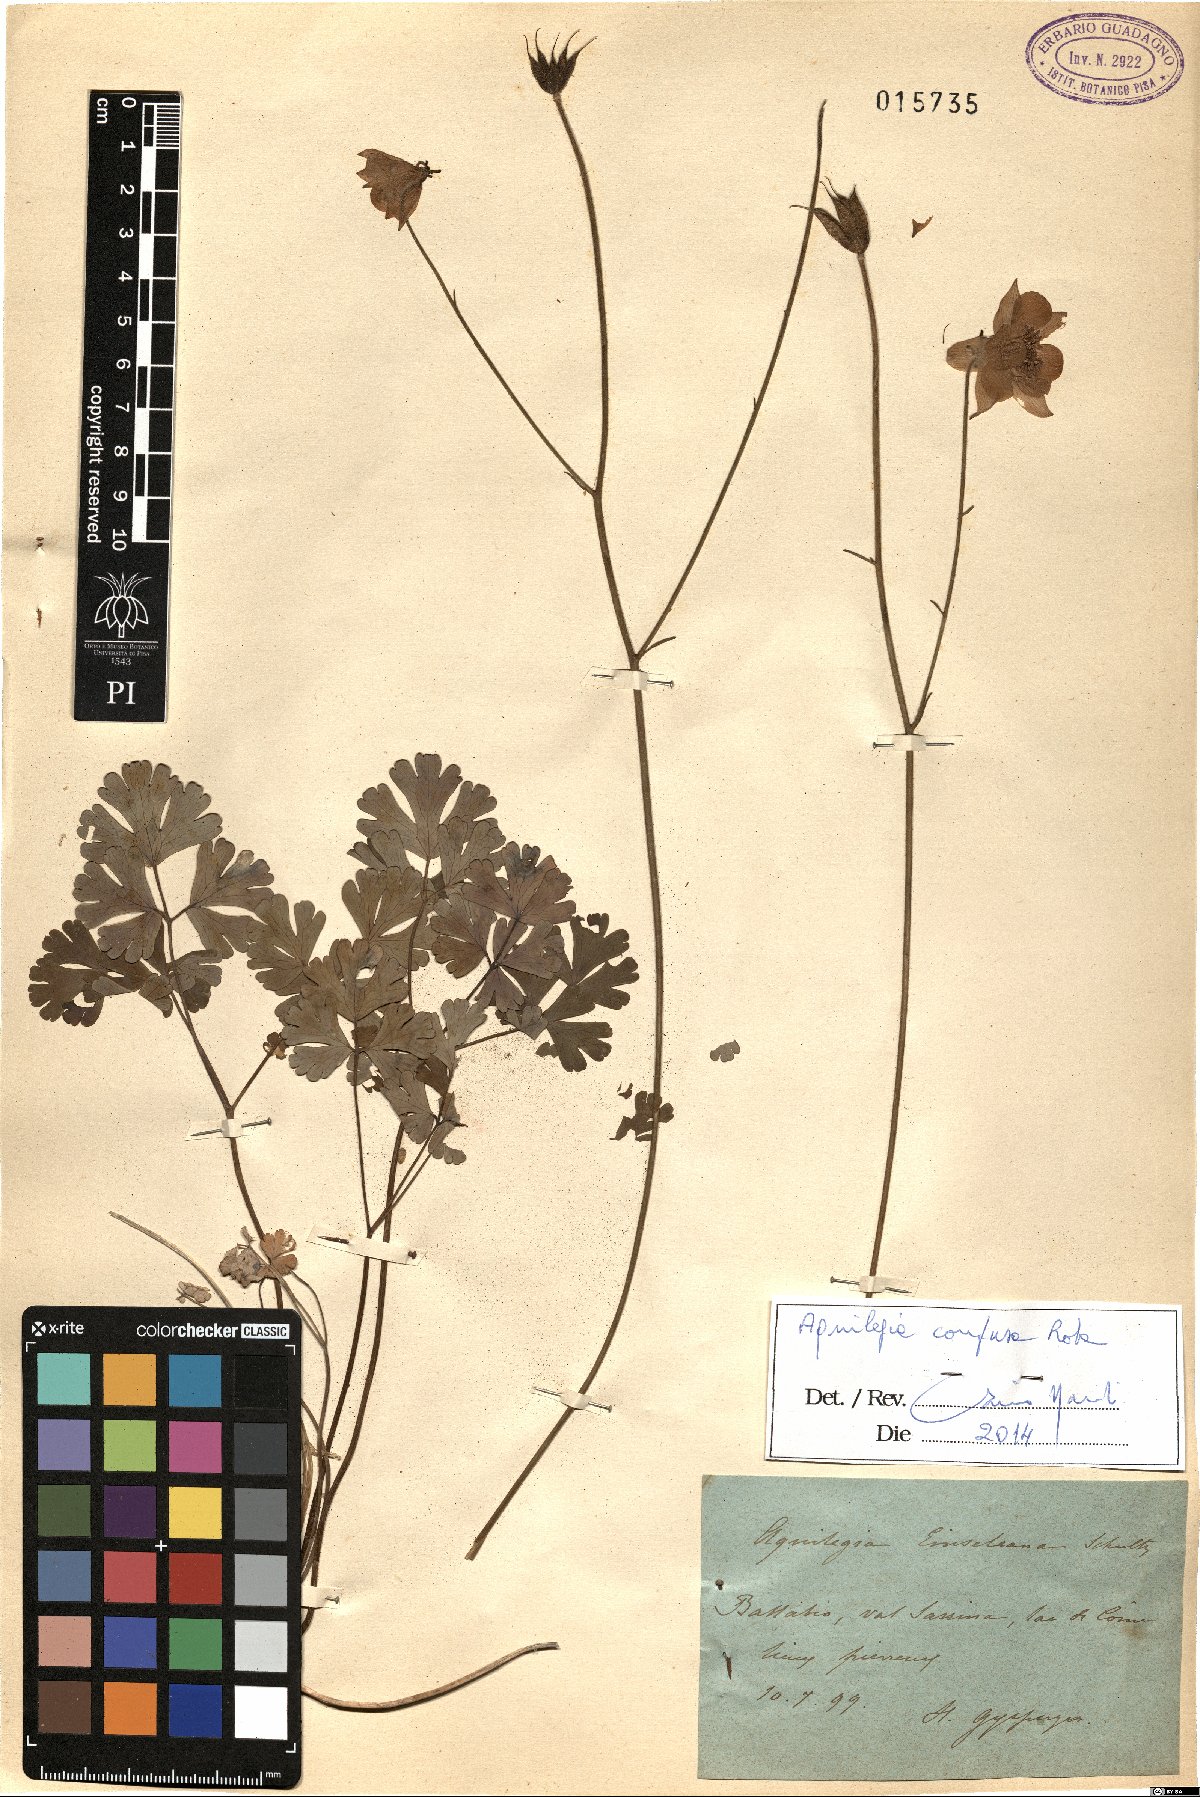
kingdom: Plantae
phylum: Tracheophyta
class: Magnoliopsida
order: Ranunculales
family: Ranunculaceae
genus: Aquilegia
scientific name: Aquilegia einseleana
